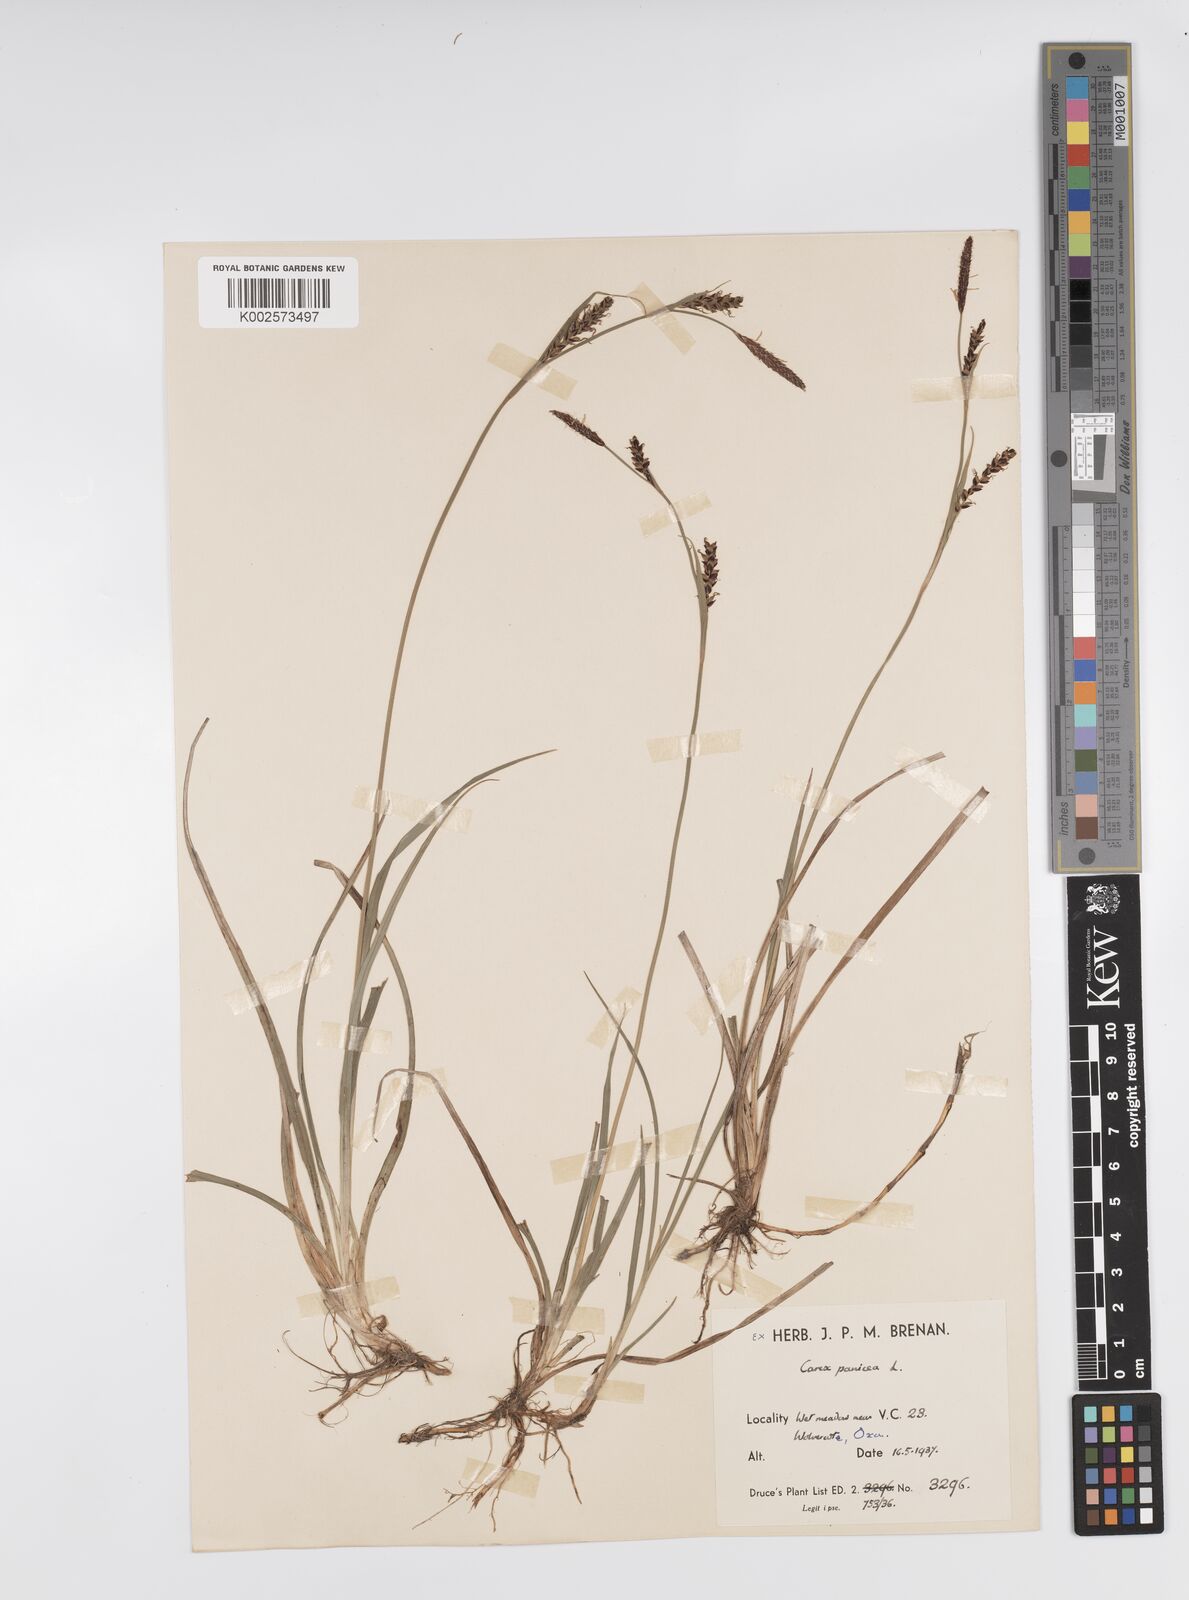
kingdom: Plantae
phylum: Tracheophyta
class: Liliopsida
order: Poales
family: Cyperaceae
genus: Carex
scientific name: Carex panicea
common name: Carnation sedge
